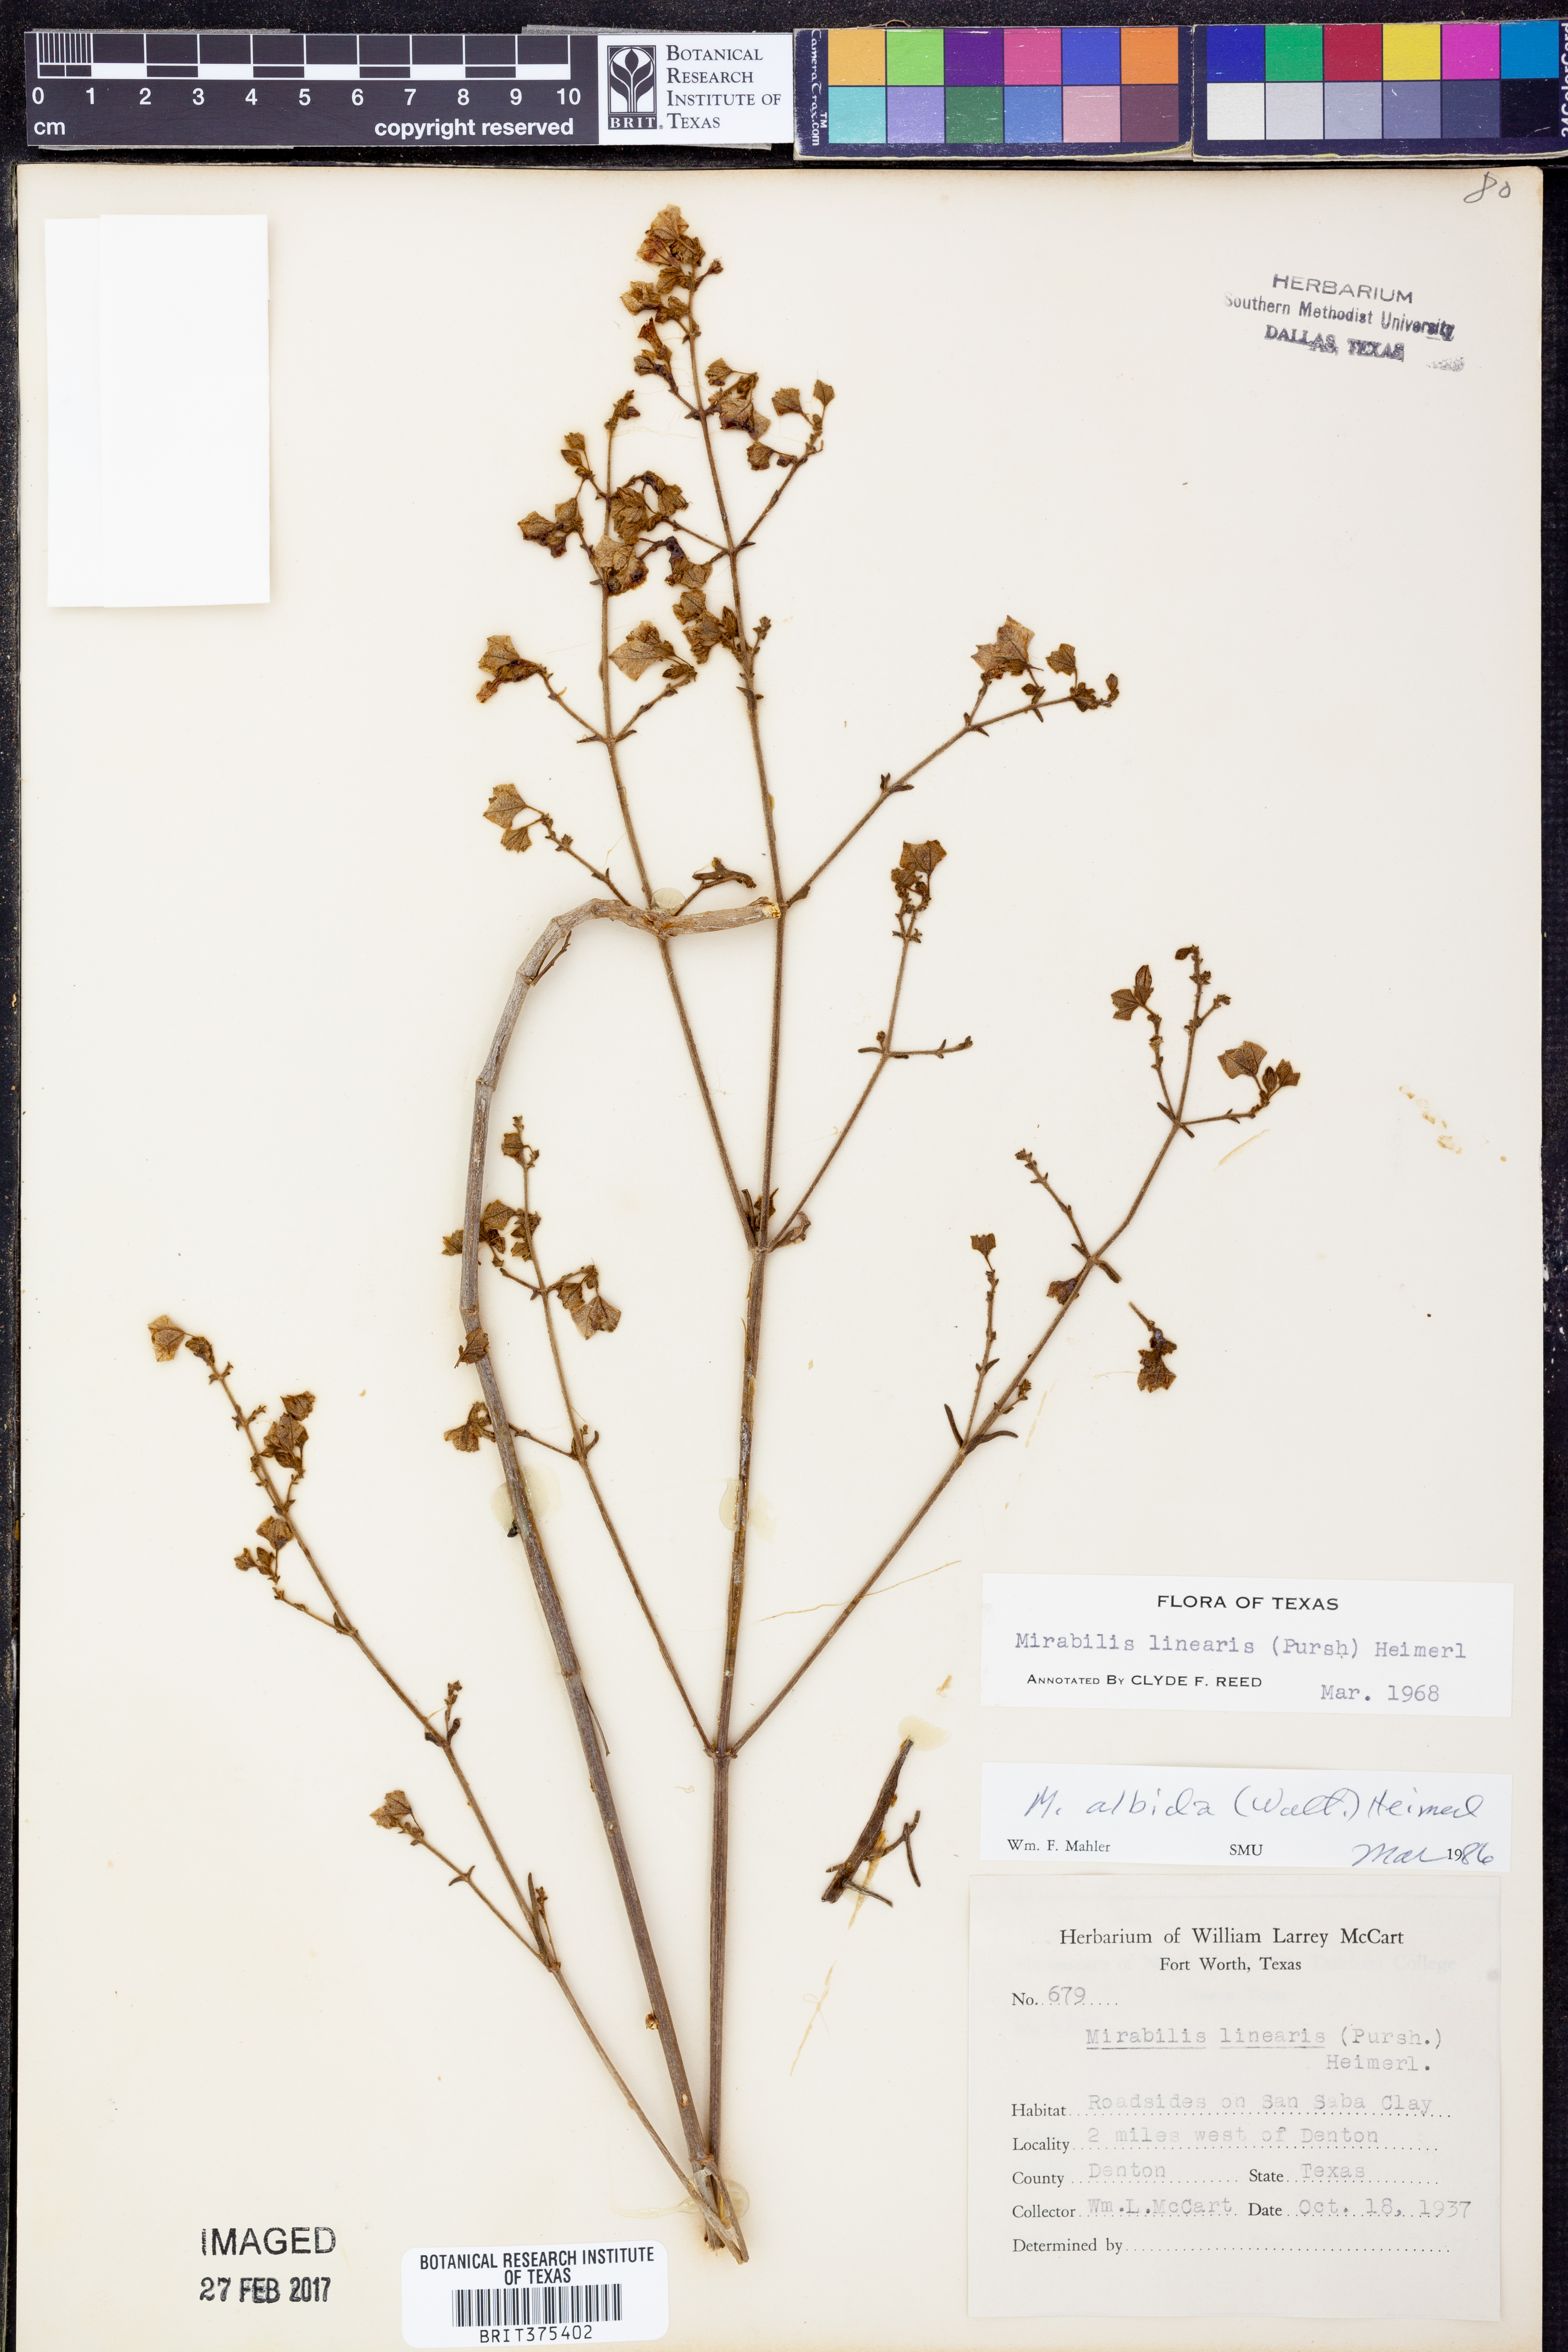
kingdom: Plantae
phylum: Tracheophyta
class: Magnoliopsida
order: Caryophyllales
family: Nyctaginaceae
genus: Mirabilis
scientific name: Mirabilis linearis
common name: Linear-leaved four-o'clock
